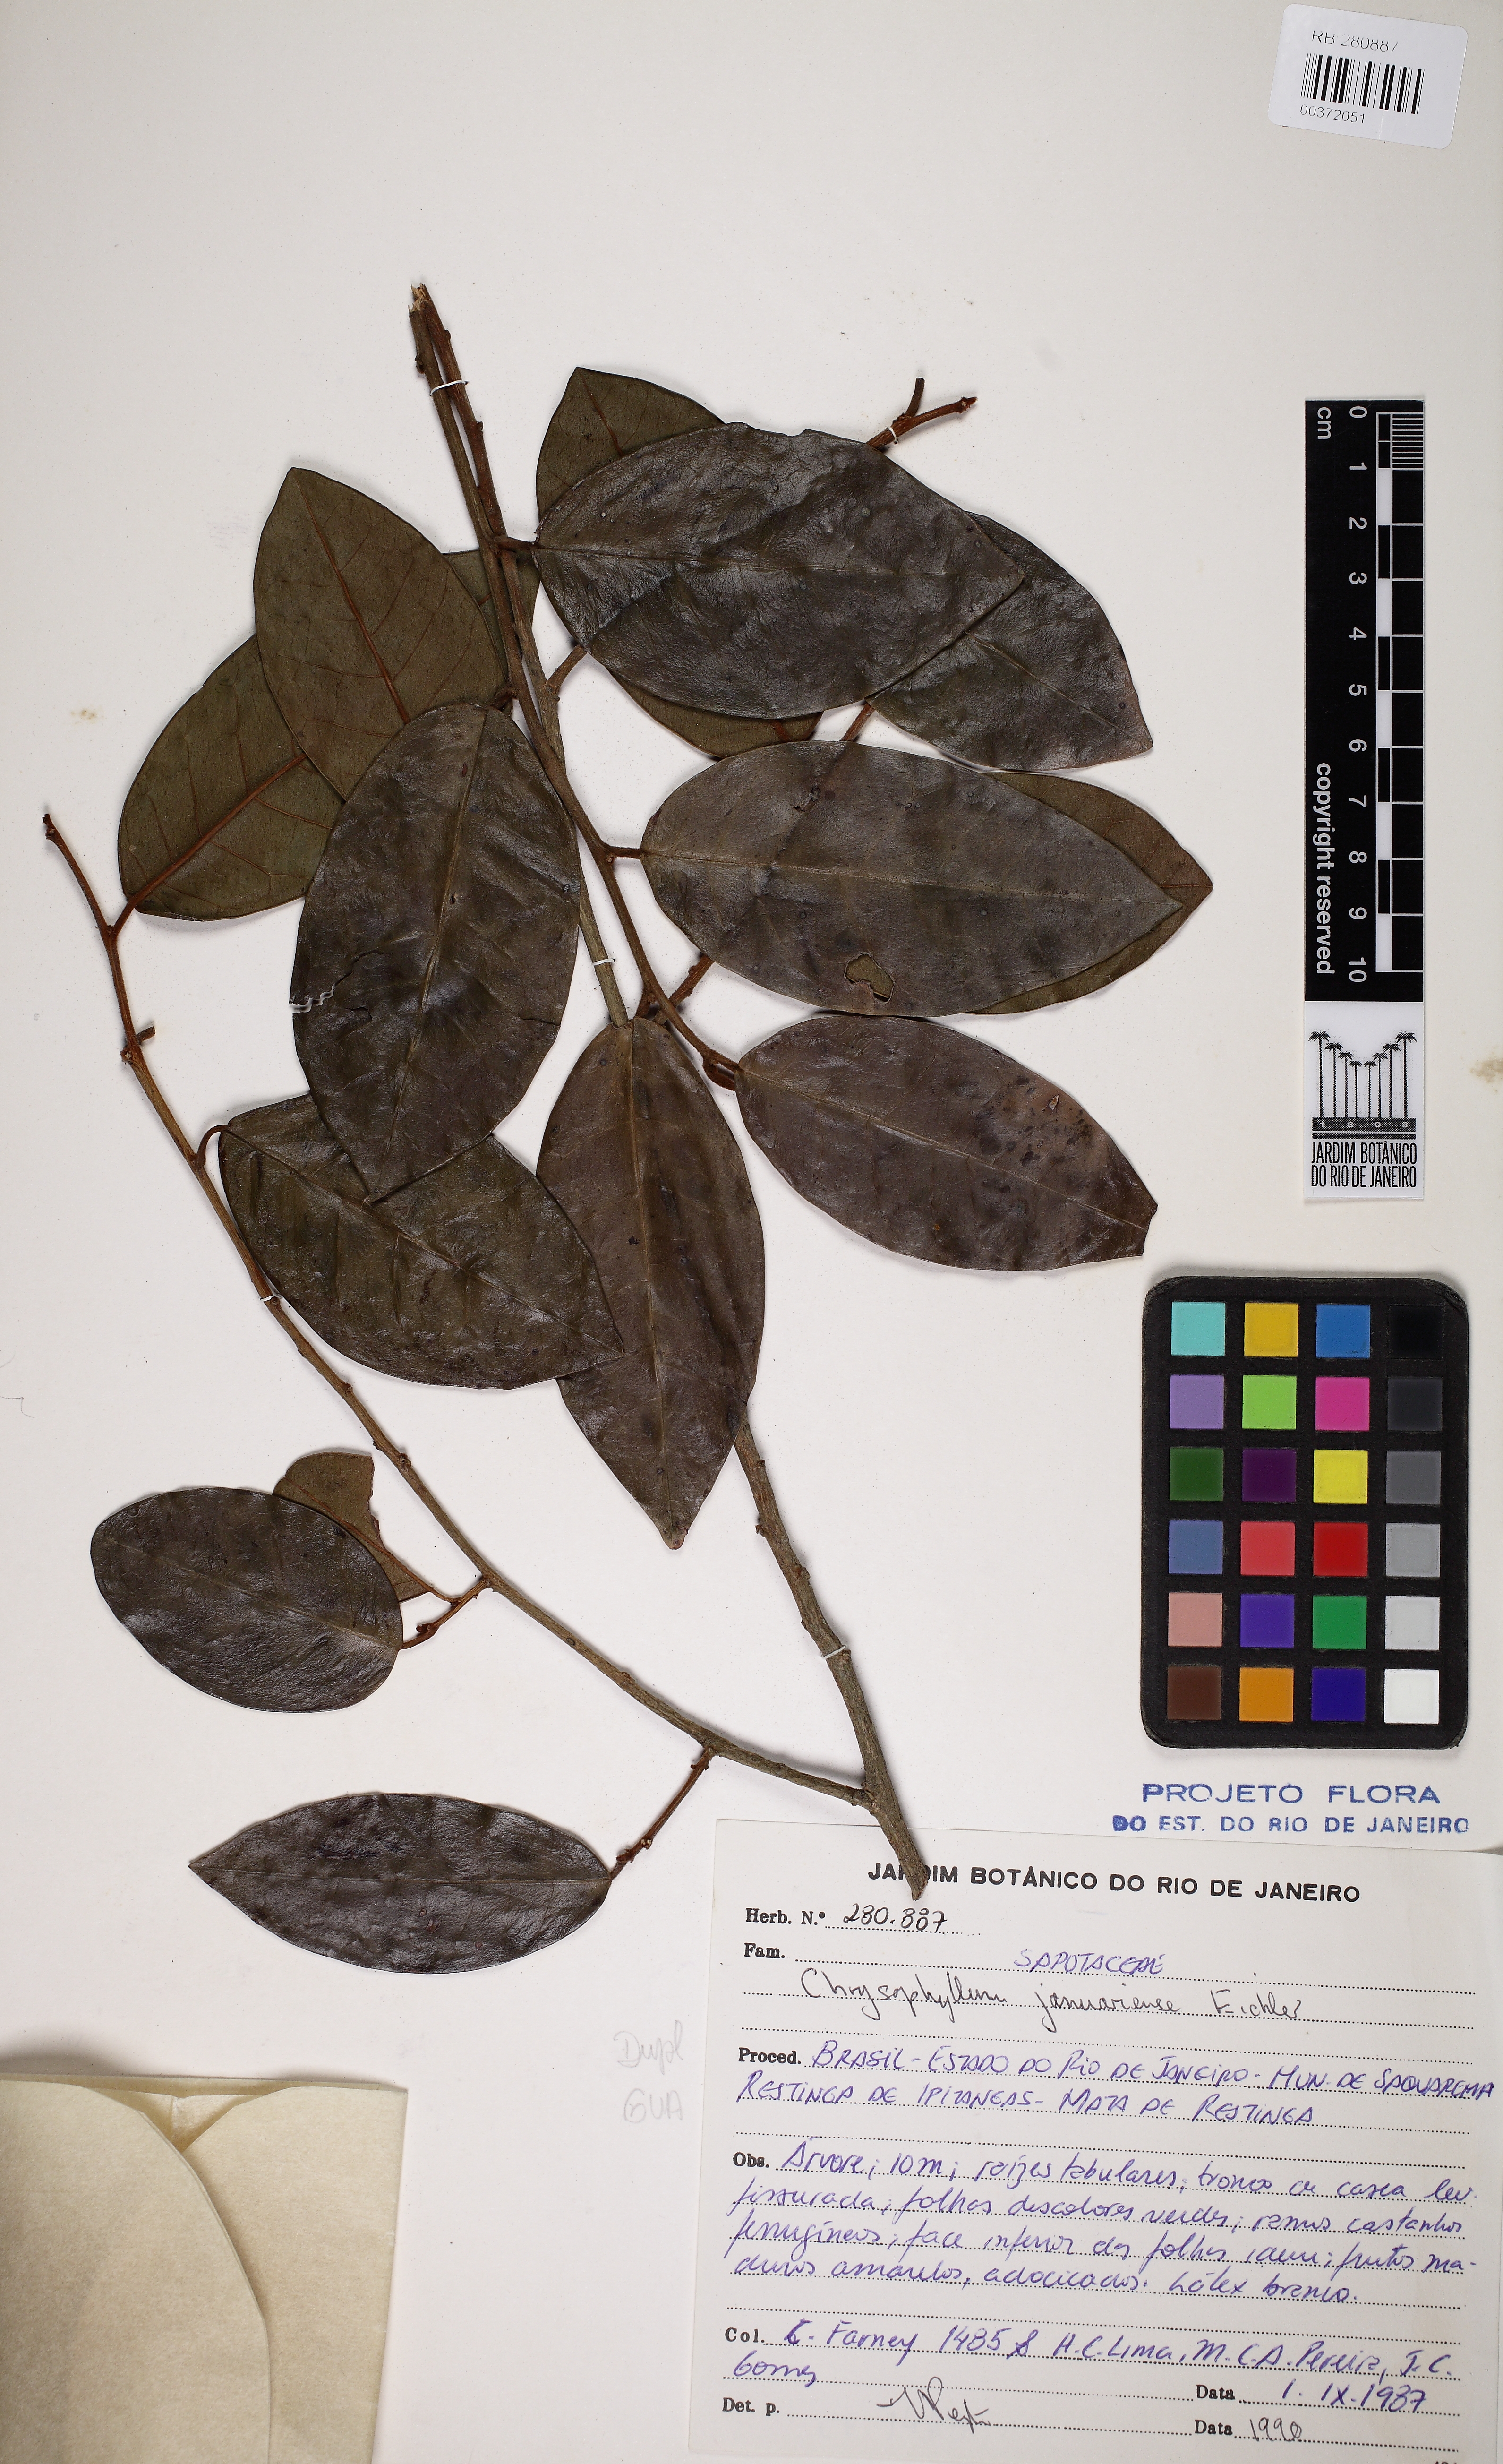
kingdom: Plantae
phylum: Tracheophyta
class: Magnoliopsida
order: Ericales
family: Sapotaceae
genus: Chrysophyllum
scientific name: Chrysophyllum januariense
